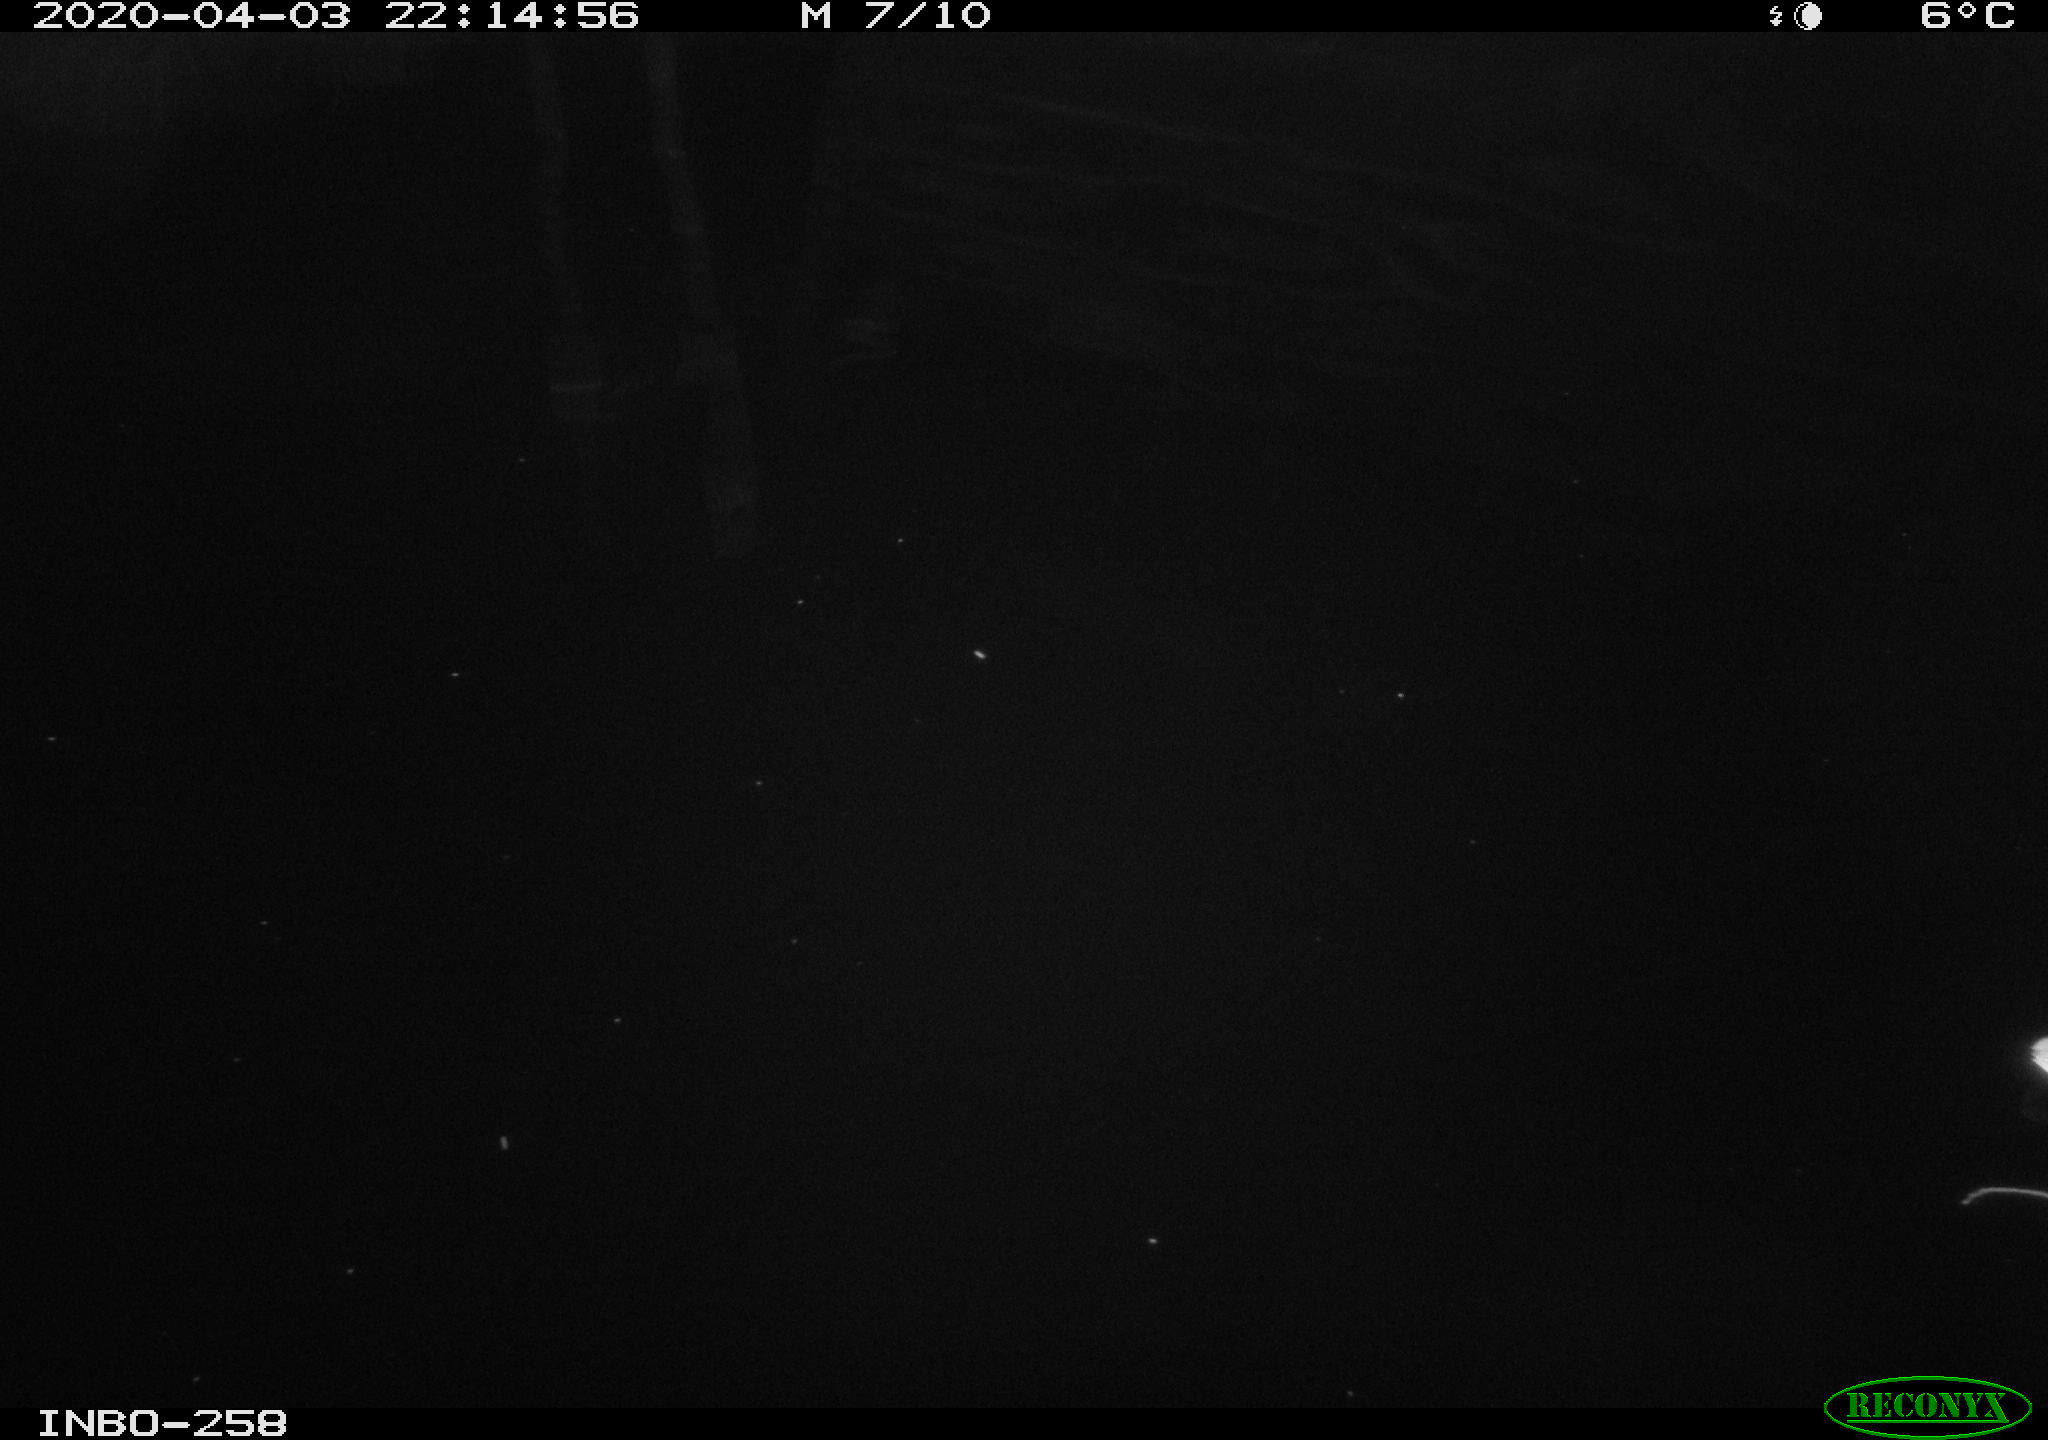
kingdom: Animalia
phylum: Chordata
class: Aves
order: Anseriformes
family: Anatidae
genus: Anas
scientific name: Anas platyrhynchos
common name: Mallard
